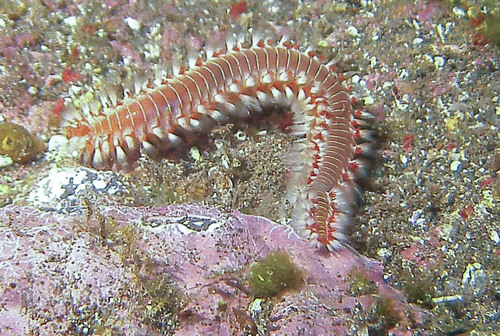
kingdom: Animalia
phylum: Annelida
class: Polychaeta
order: Amphinomida
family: Amphinomidae
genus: Hermodice
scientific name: Hermodice carunculata
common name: Bearded fireworm
